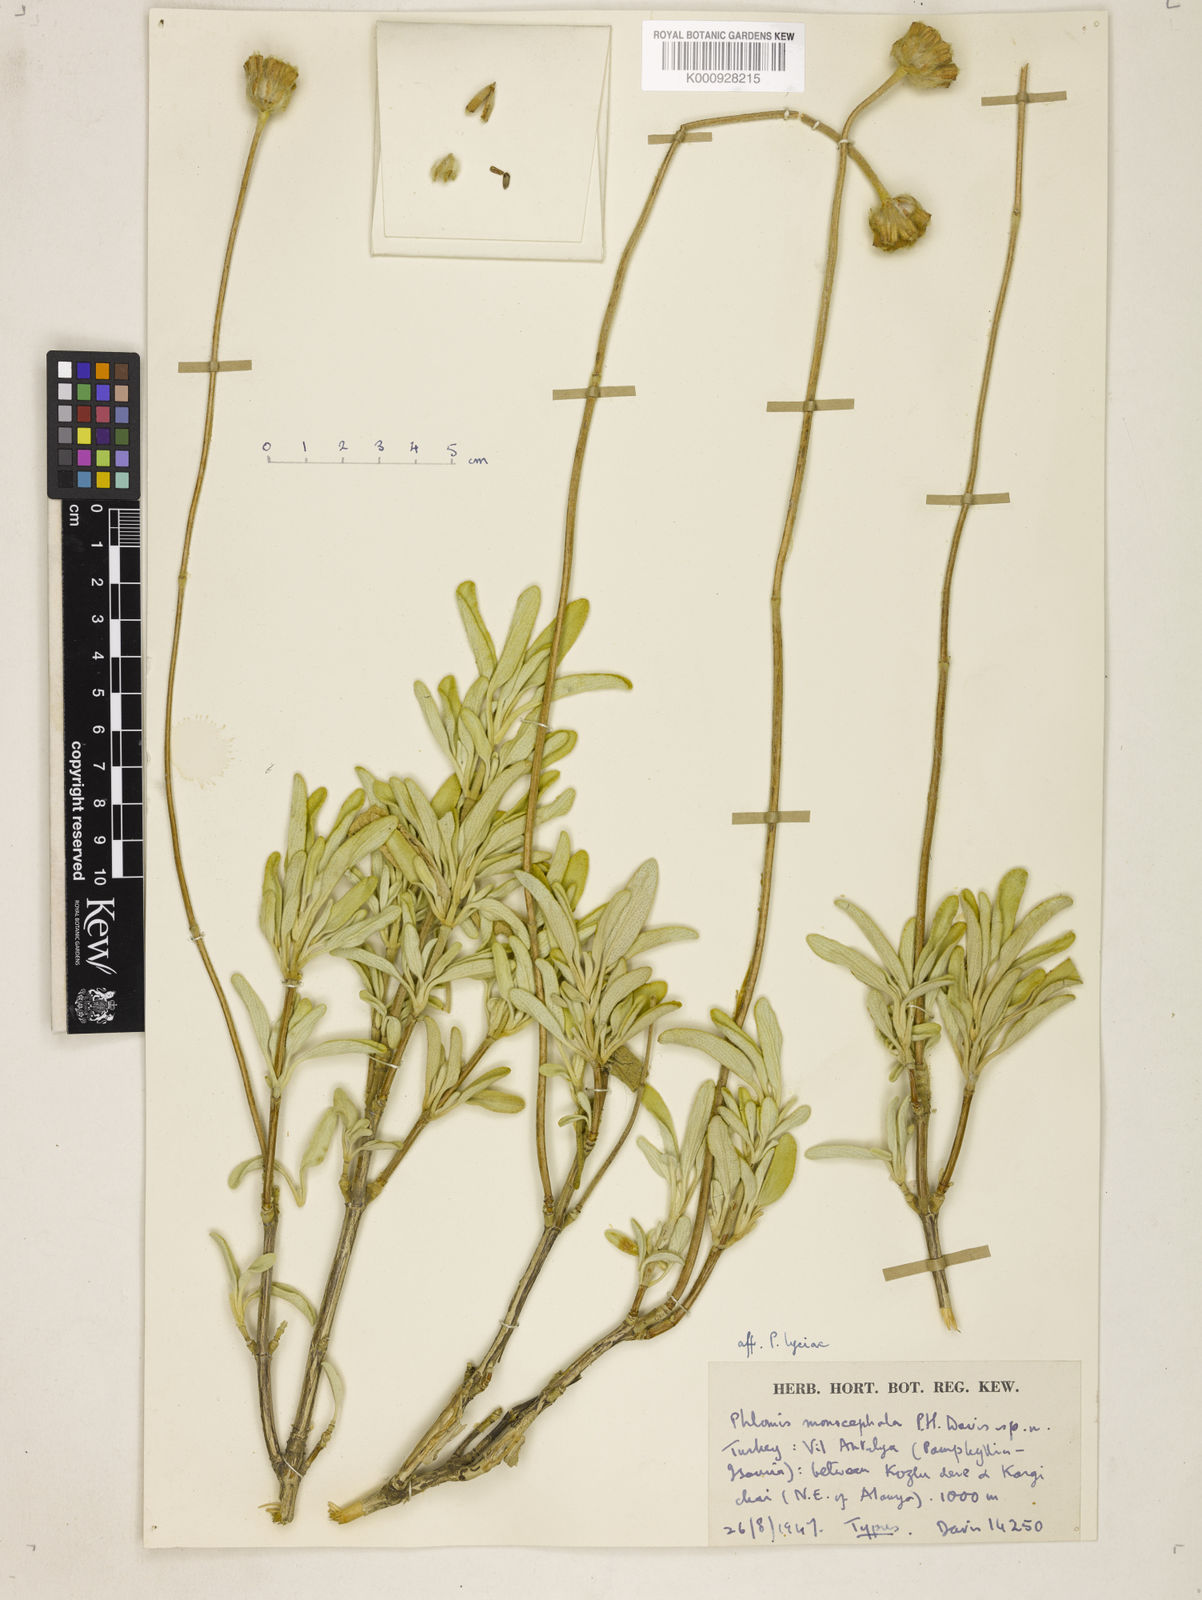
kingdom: Plantae
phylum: Tracheophyta
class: Magnoliopsida
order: Lamiales
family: Lamiaceae
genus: Phlomis
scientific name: Phlomis monocephala
